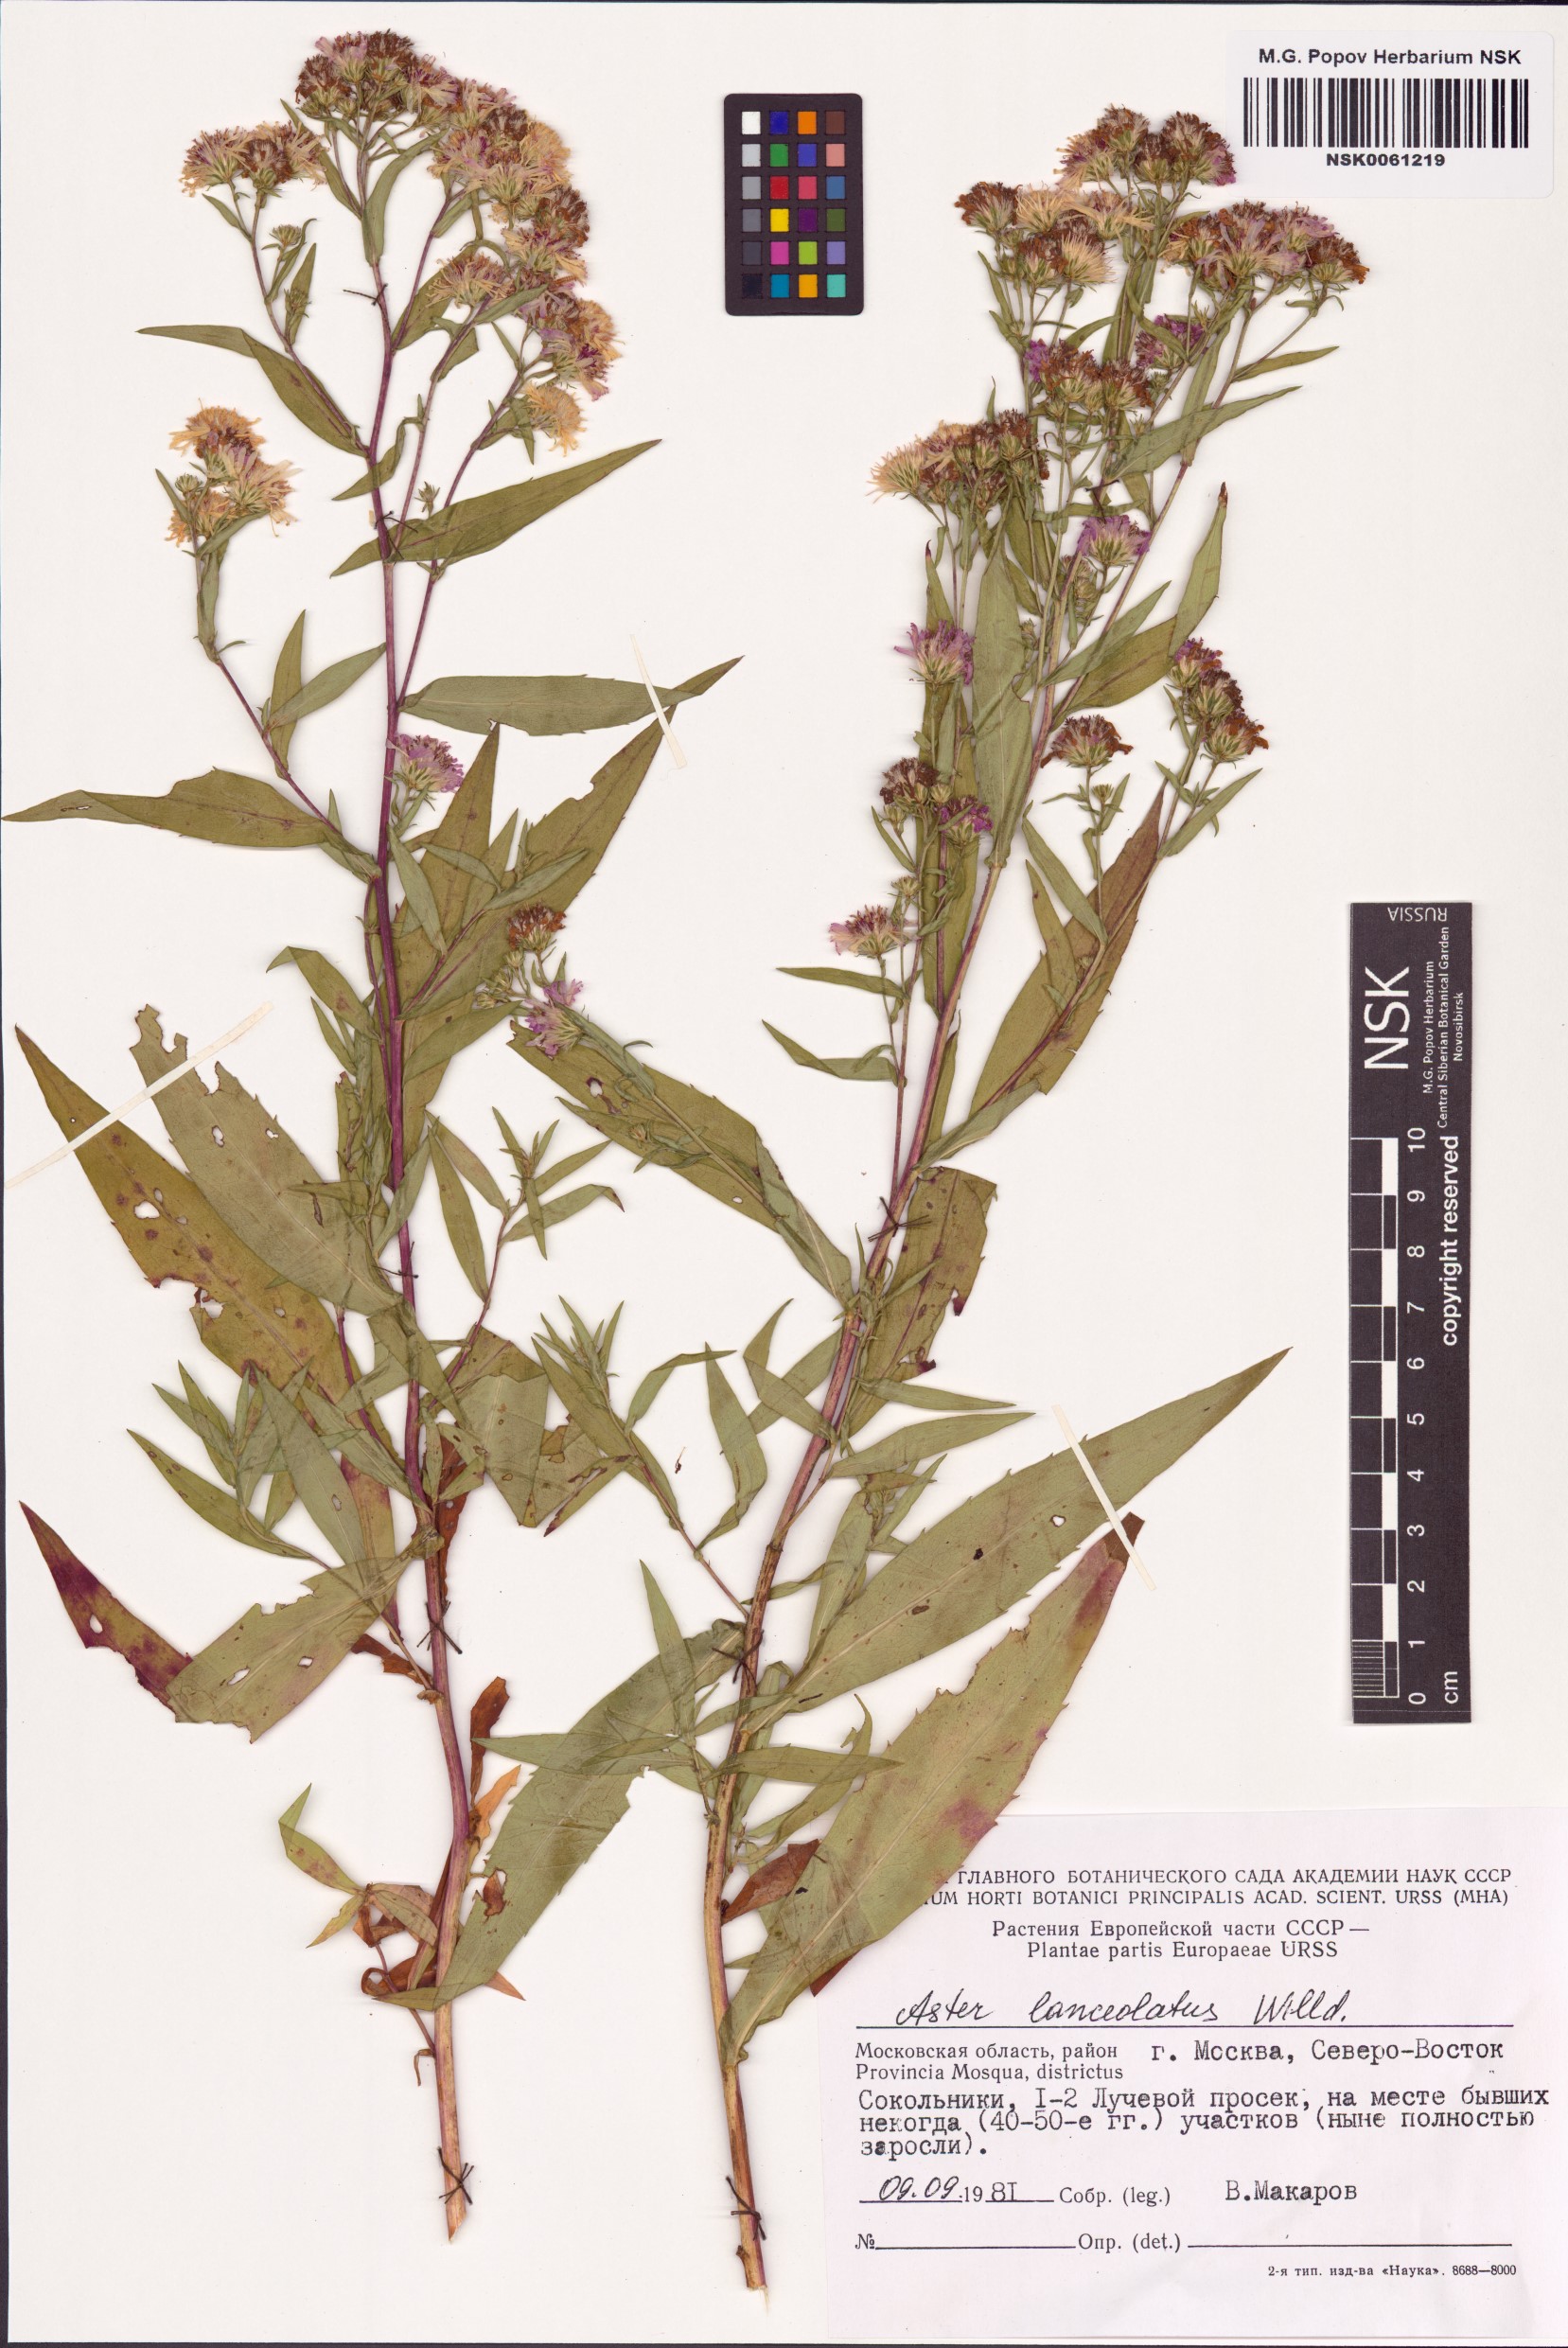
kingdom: Plantae
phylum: Tracheophyta
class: Magnoliopsida
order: Asterales
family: Asteraceae
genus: Symphyotrichum
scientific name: Symphyotrichum lanceolatum
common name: Panicled aster
